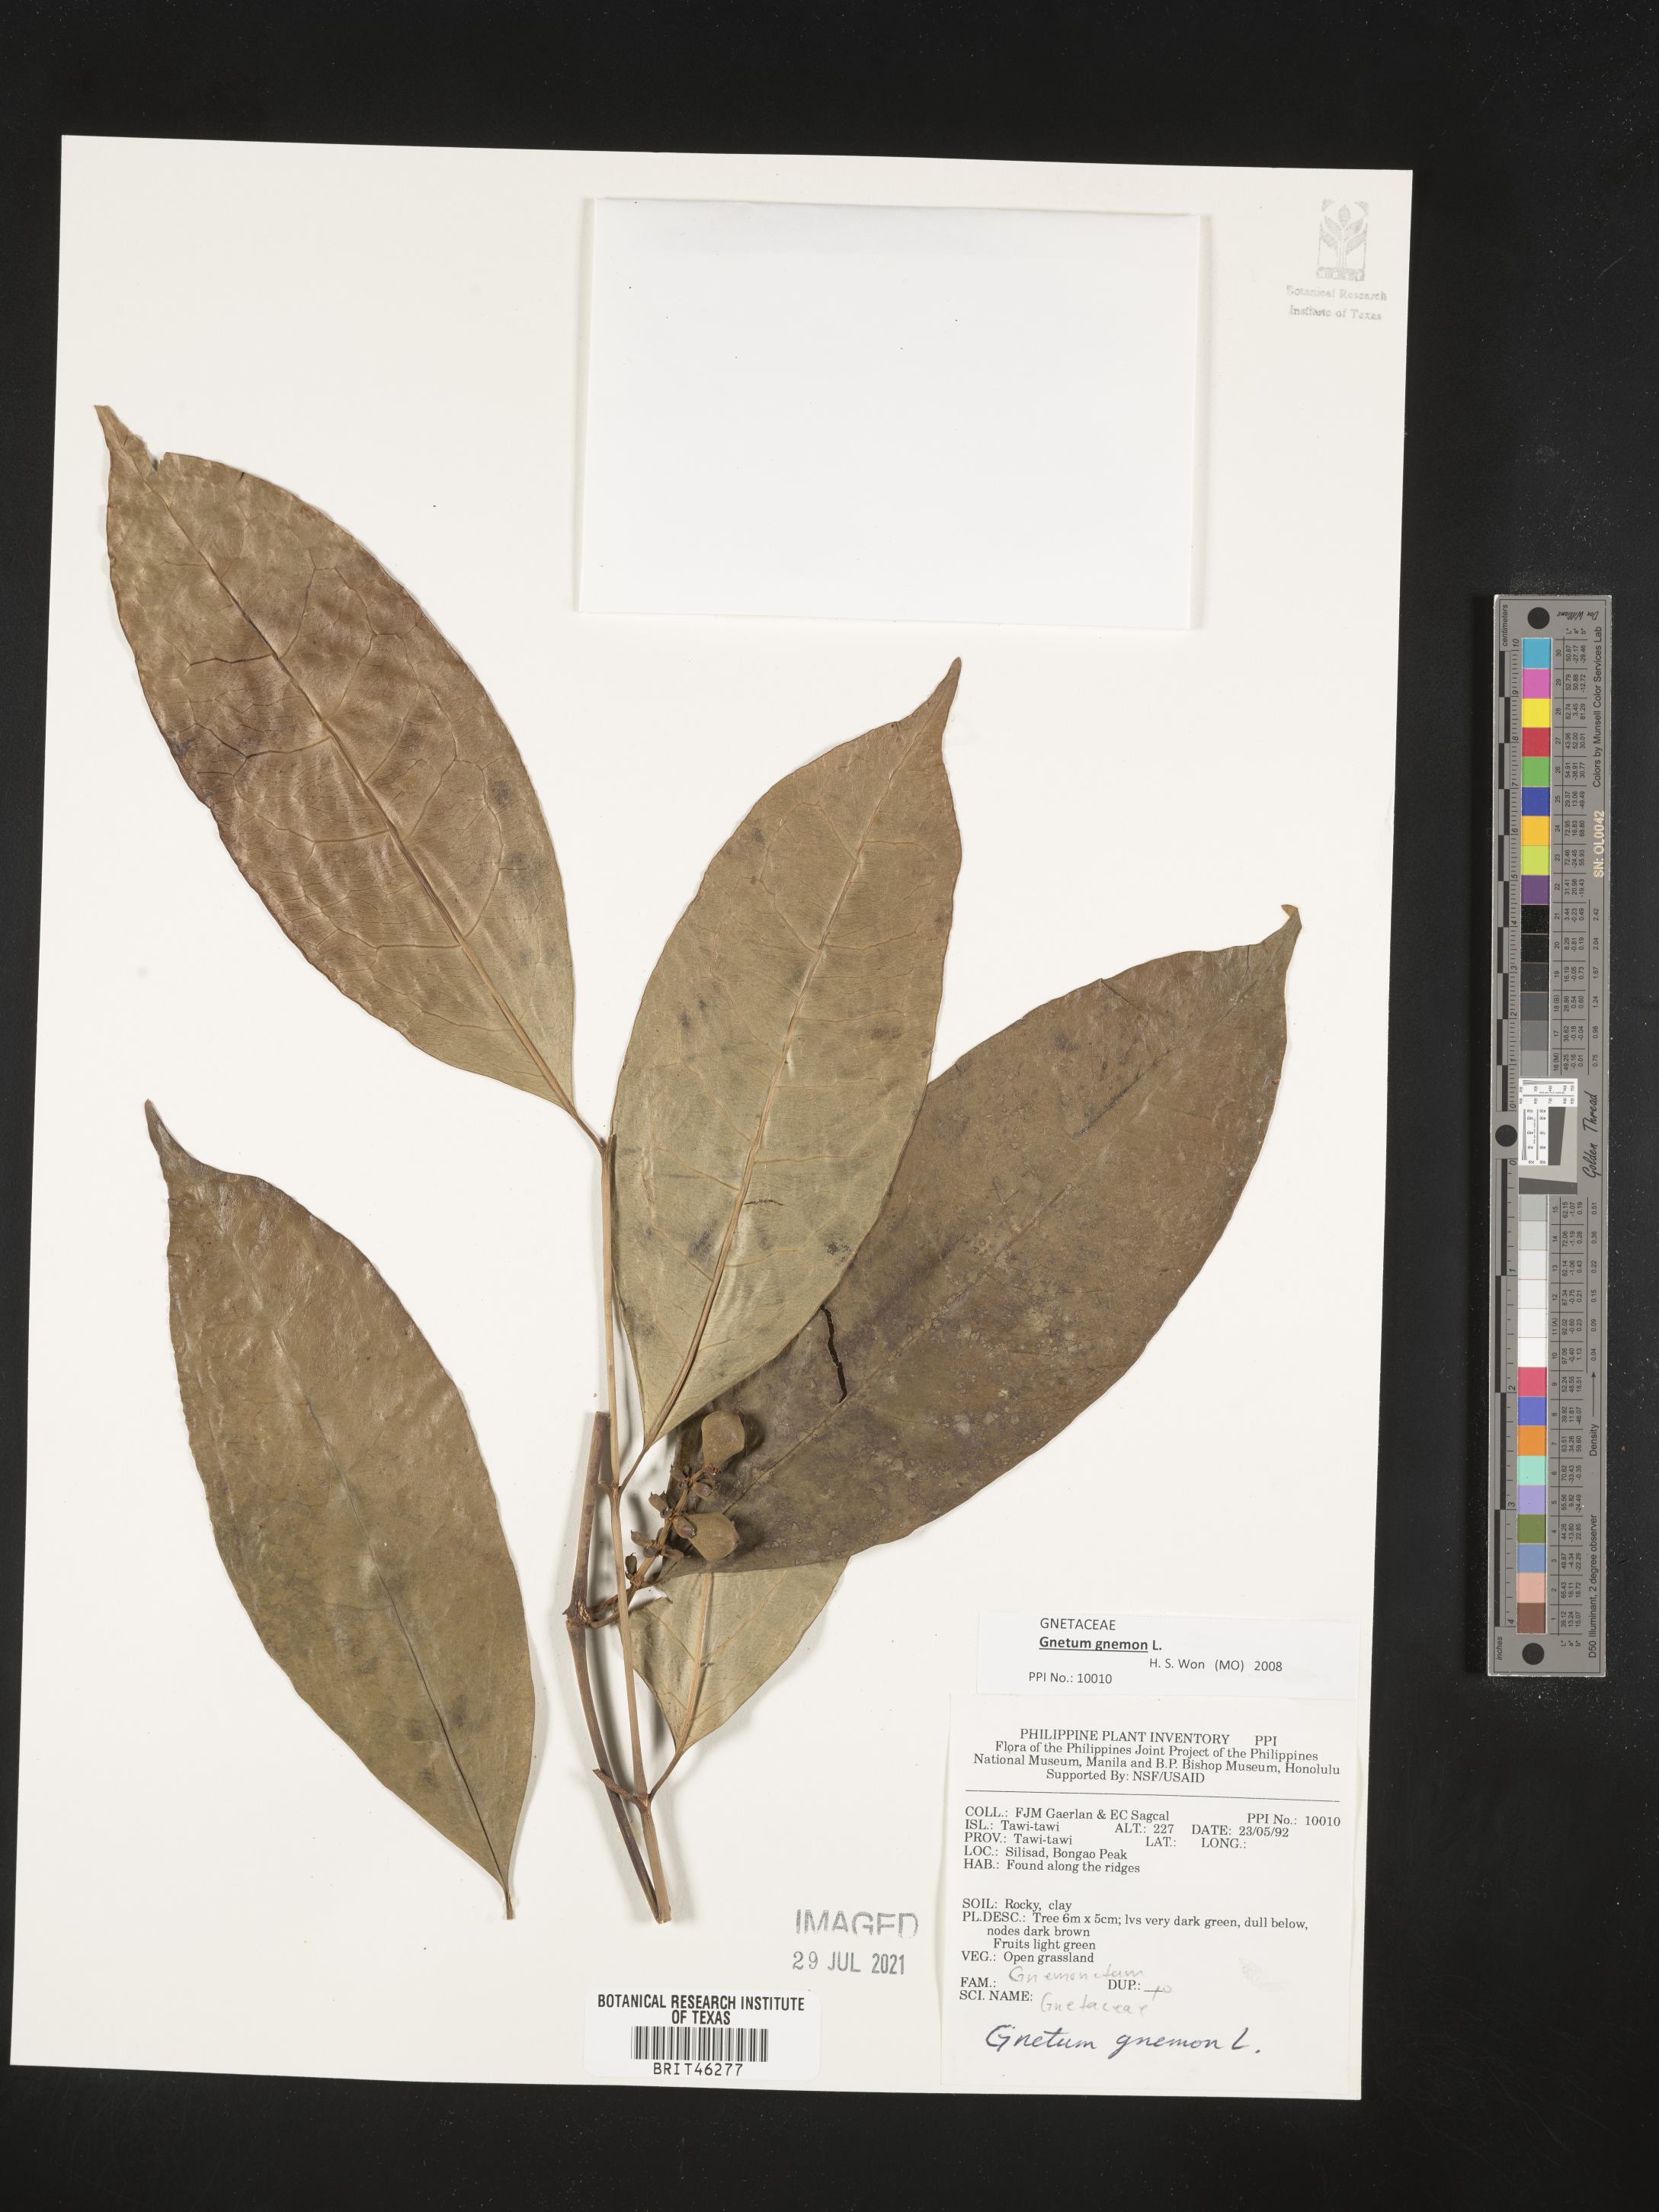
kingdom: Plantae
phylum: Tracheophyta
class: Gnetopsida
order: Gnetales
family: Gnetaceae
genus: Gnetum
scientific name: Gnetum gnemon
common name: Spanish joint-fir
